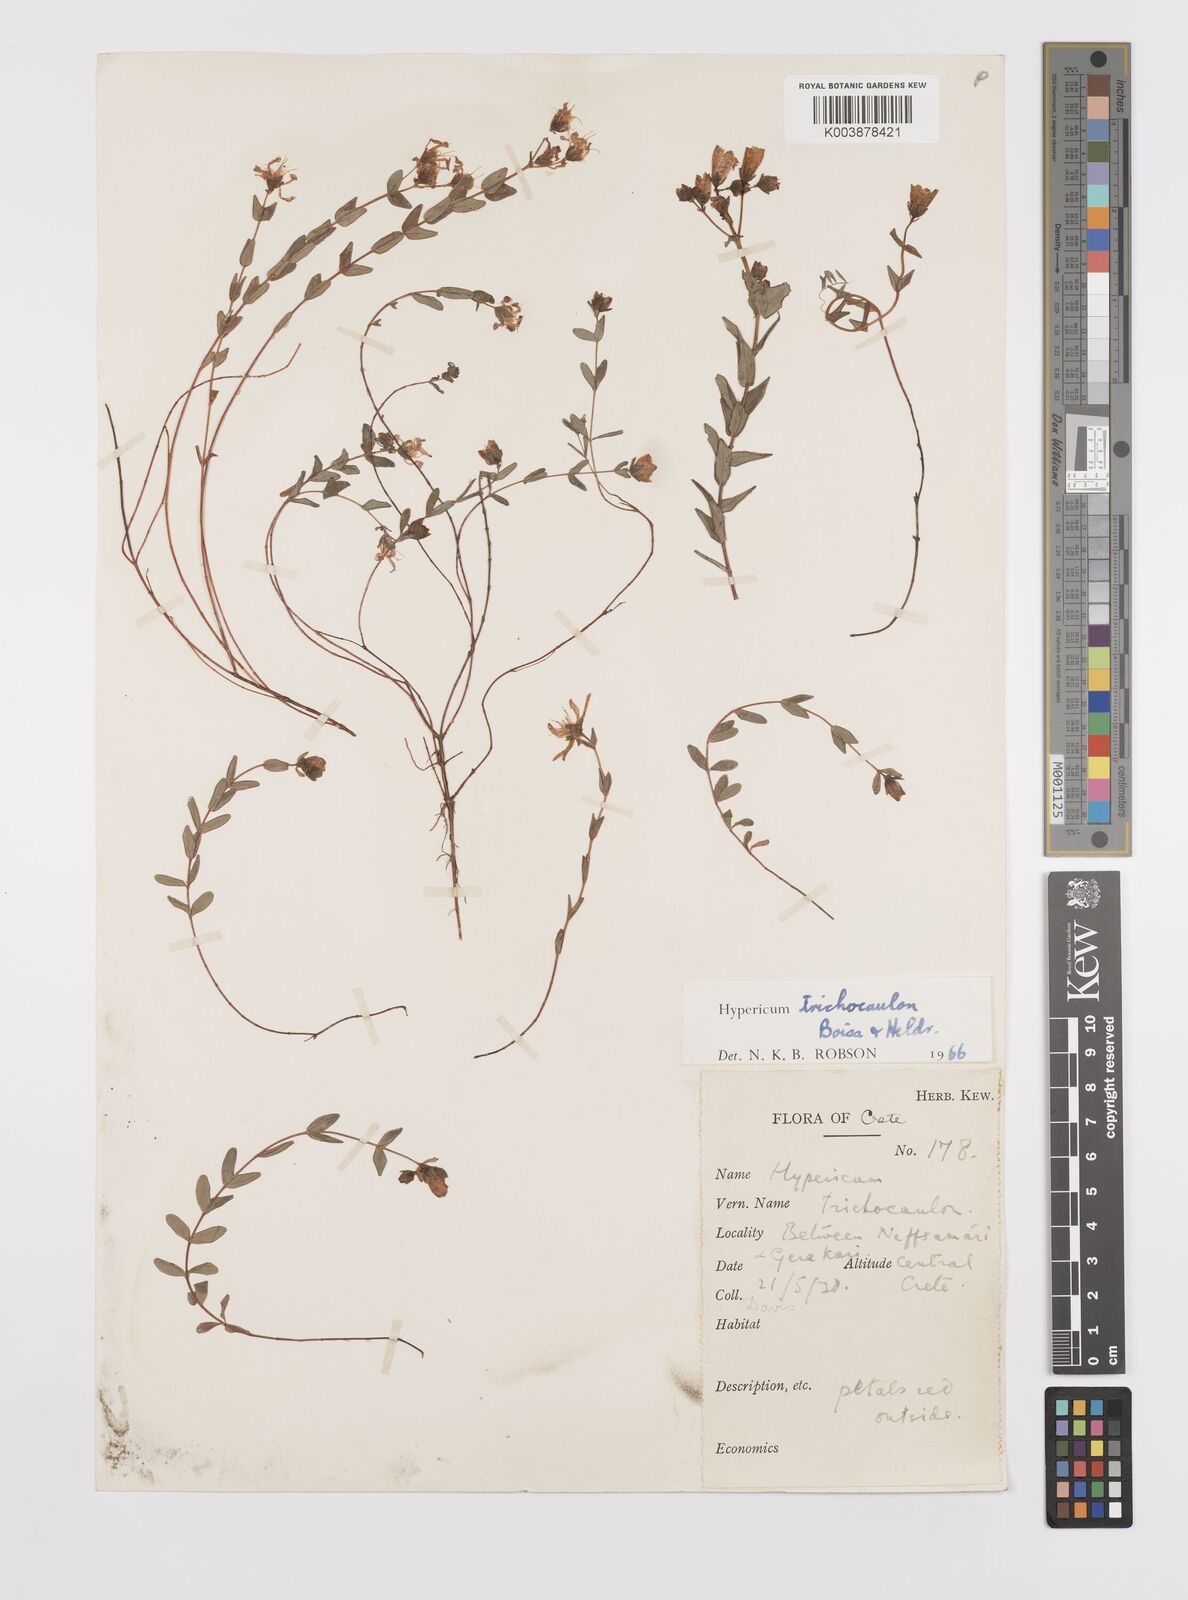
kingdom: Plantae
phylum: Tracheophyta
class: Magnoliopsida
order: Malpighiales
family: Hypericaceae
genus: Hypericum
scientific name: Hypericum trichocaulon
